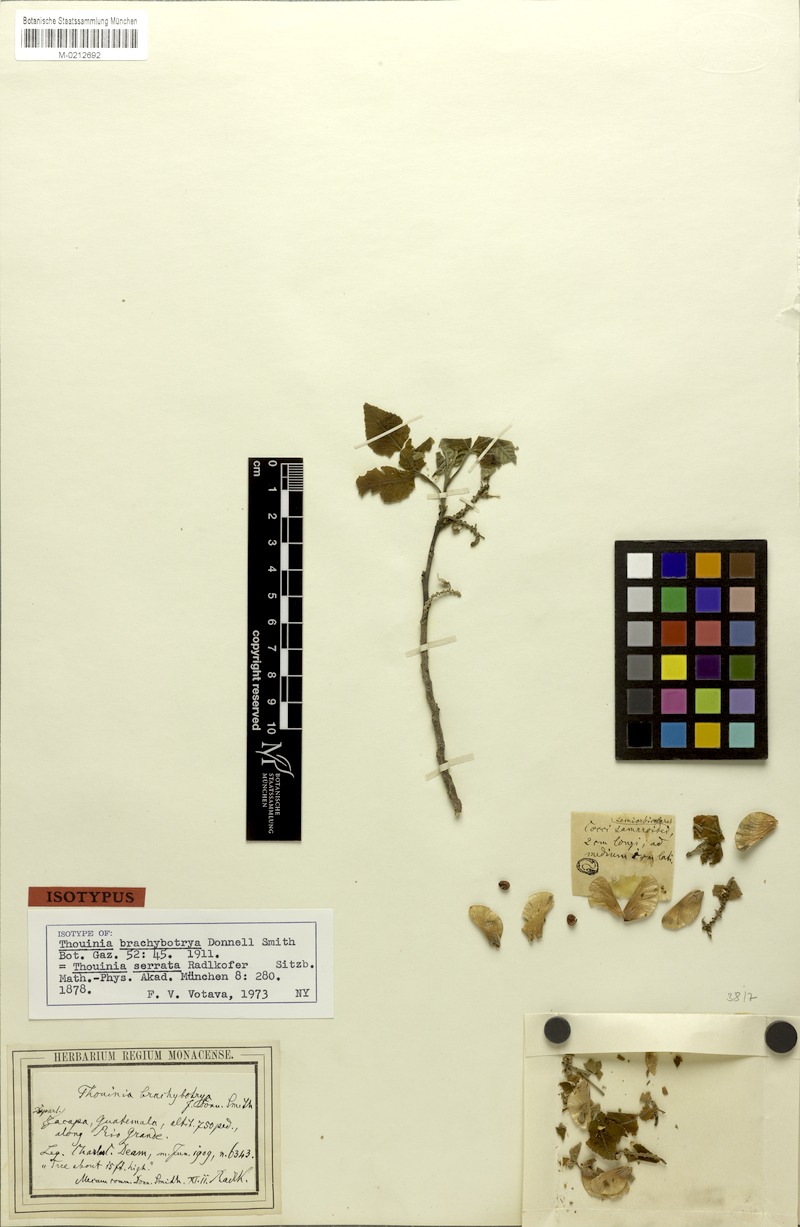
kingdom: Plantae
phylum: Tracheophyta
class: Magnoliopsida
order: Sapindales
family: Sapindaceae
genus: Thouinia
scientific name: Thouinia serrata
